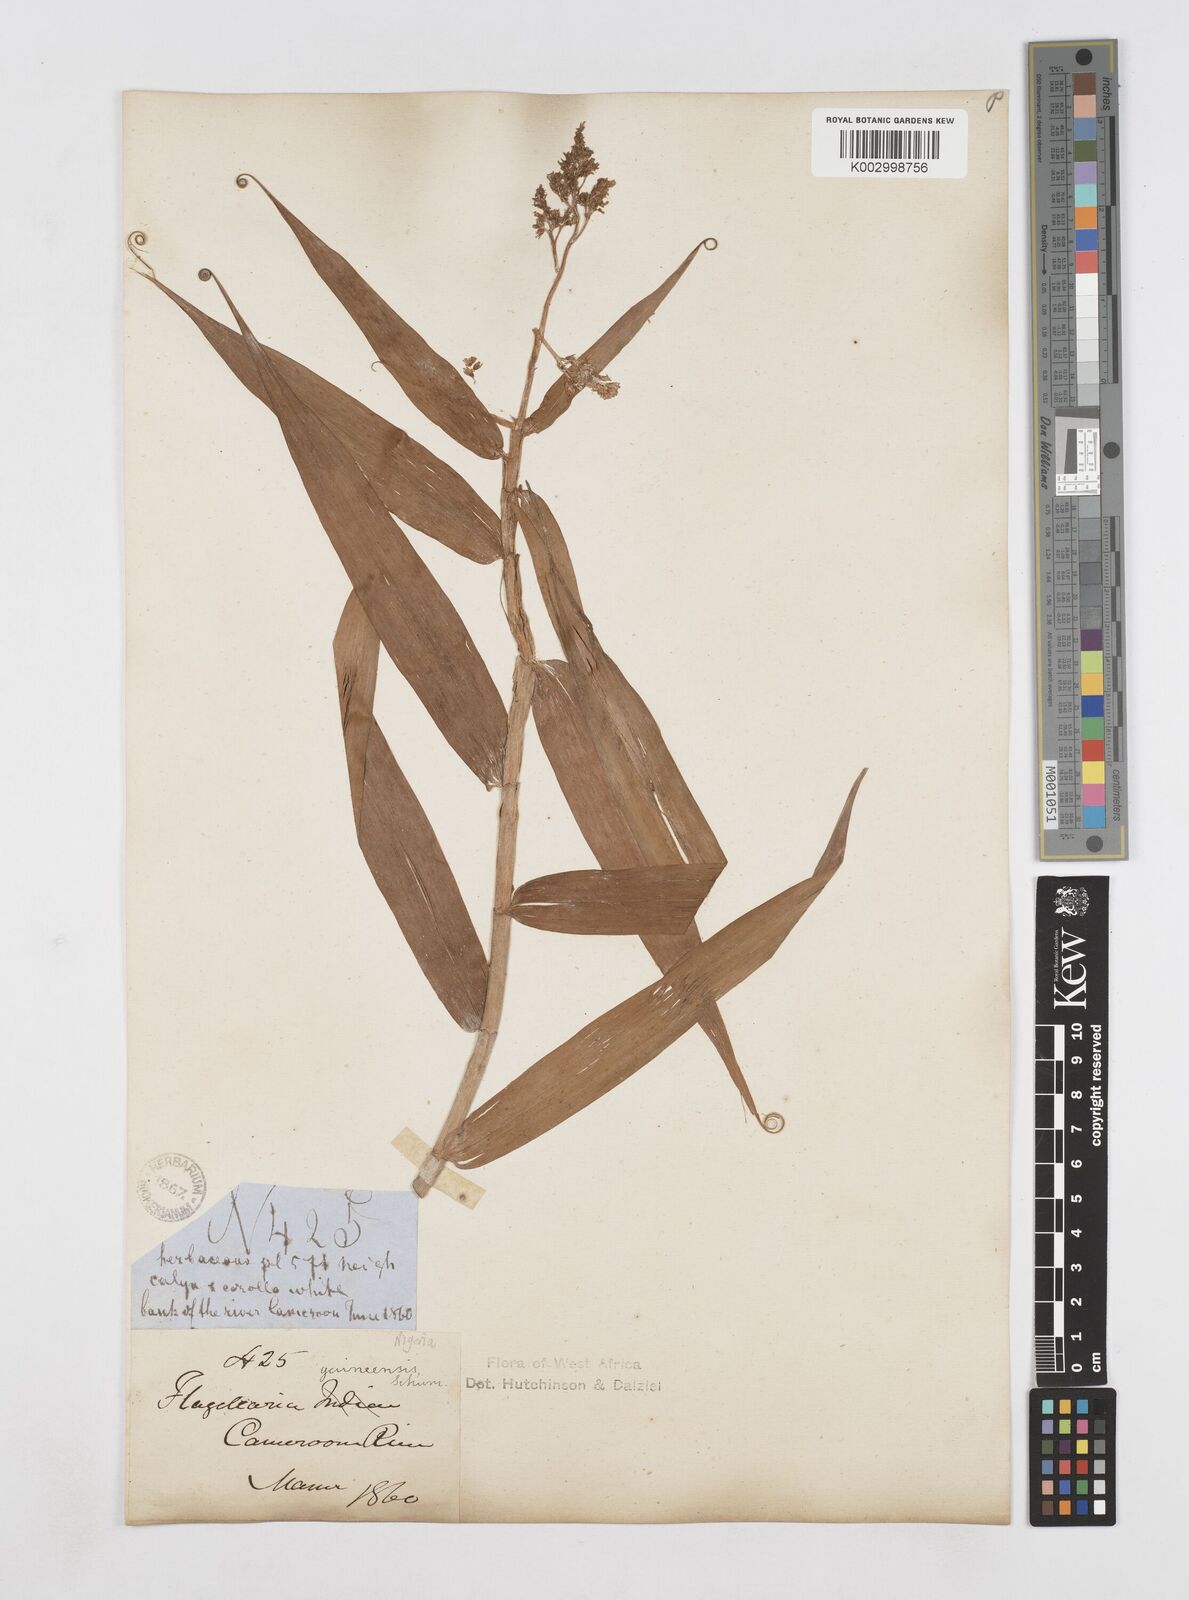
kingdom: Plantae
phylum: Tracheophyta
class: Liliopsida
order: Poales
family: Flagellariaceae
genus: Flagellaria
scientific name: Flagellaria guineensis
